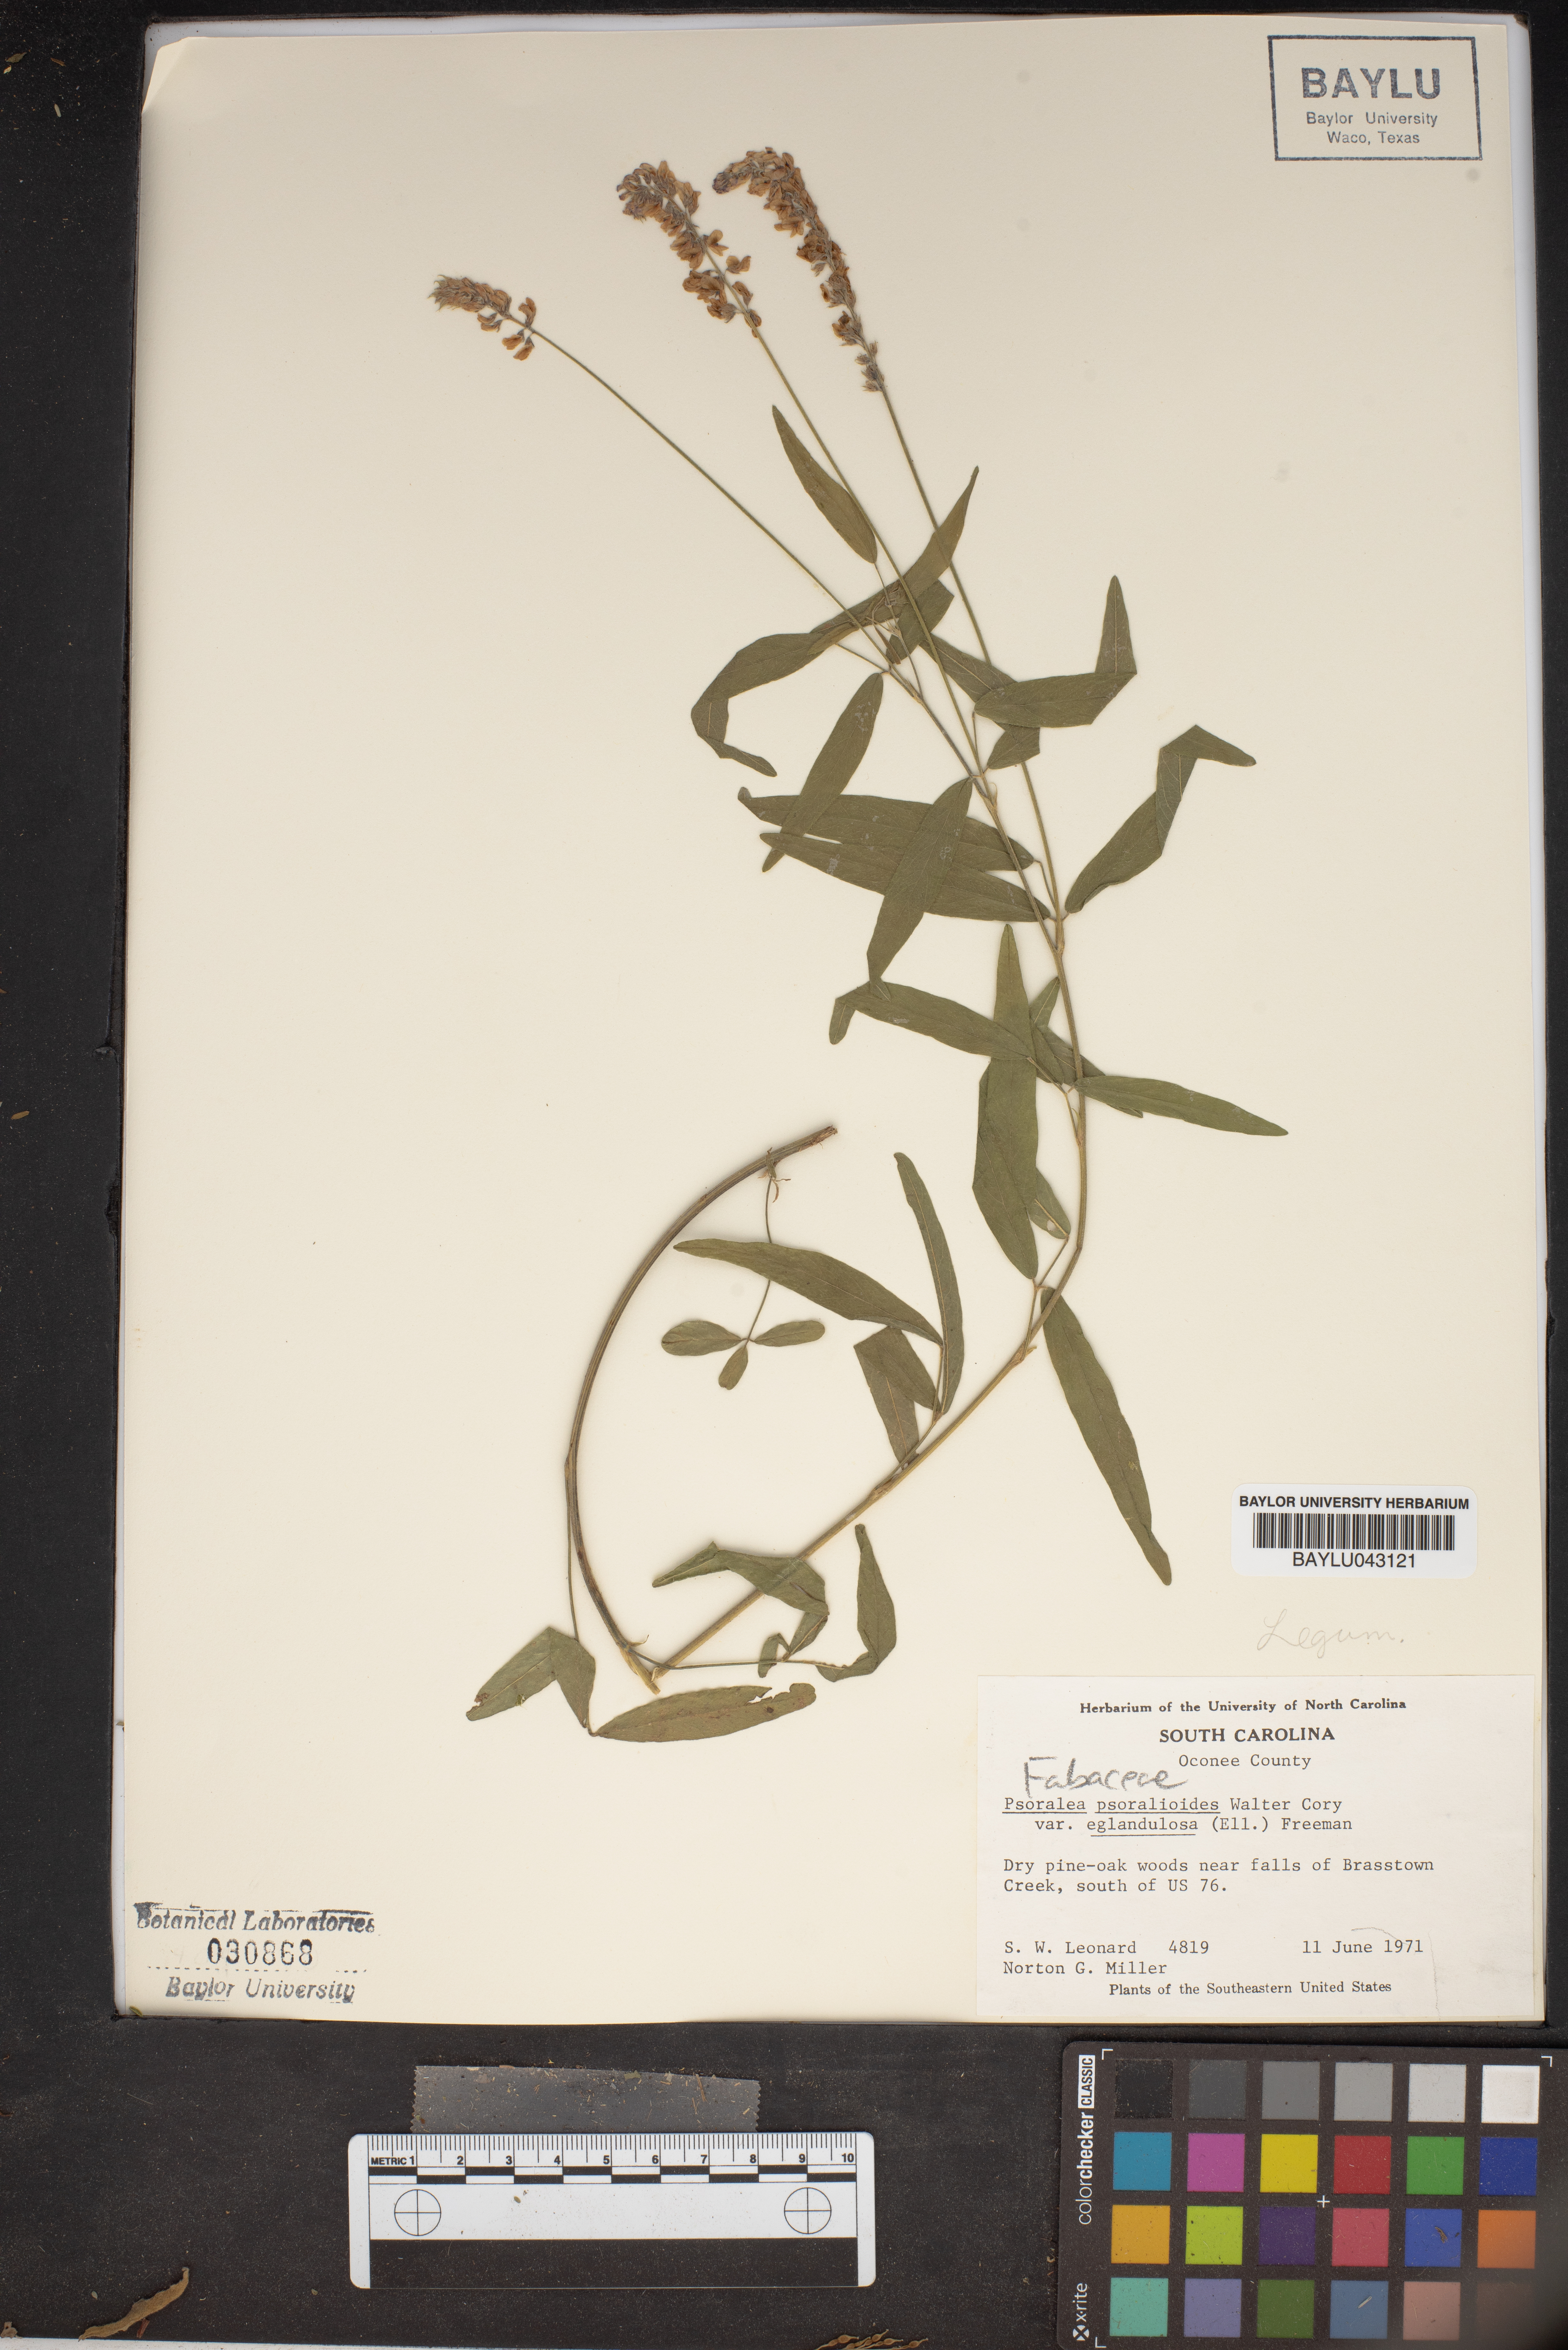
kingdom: Plantae
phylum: Tracheophyta
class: Magnoliopsida
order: Fabales
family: Fabaceae
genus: Orbexilum
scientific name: Orbexilum psoralioides
